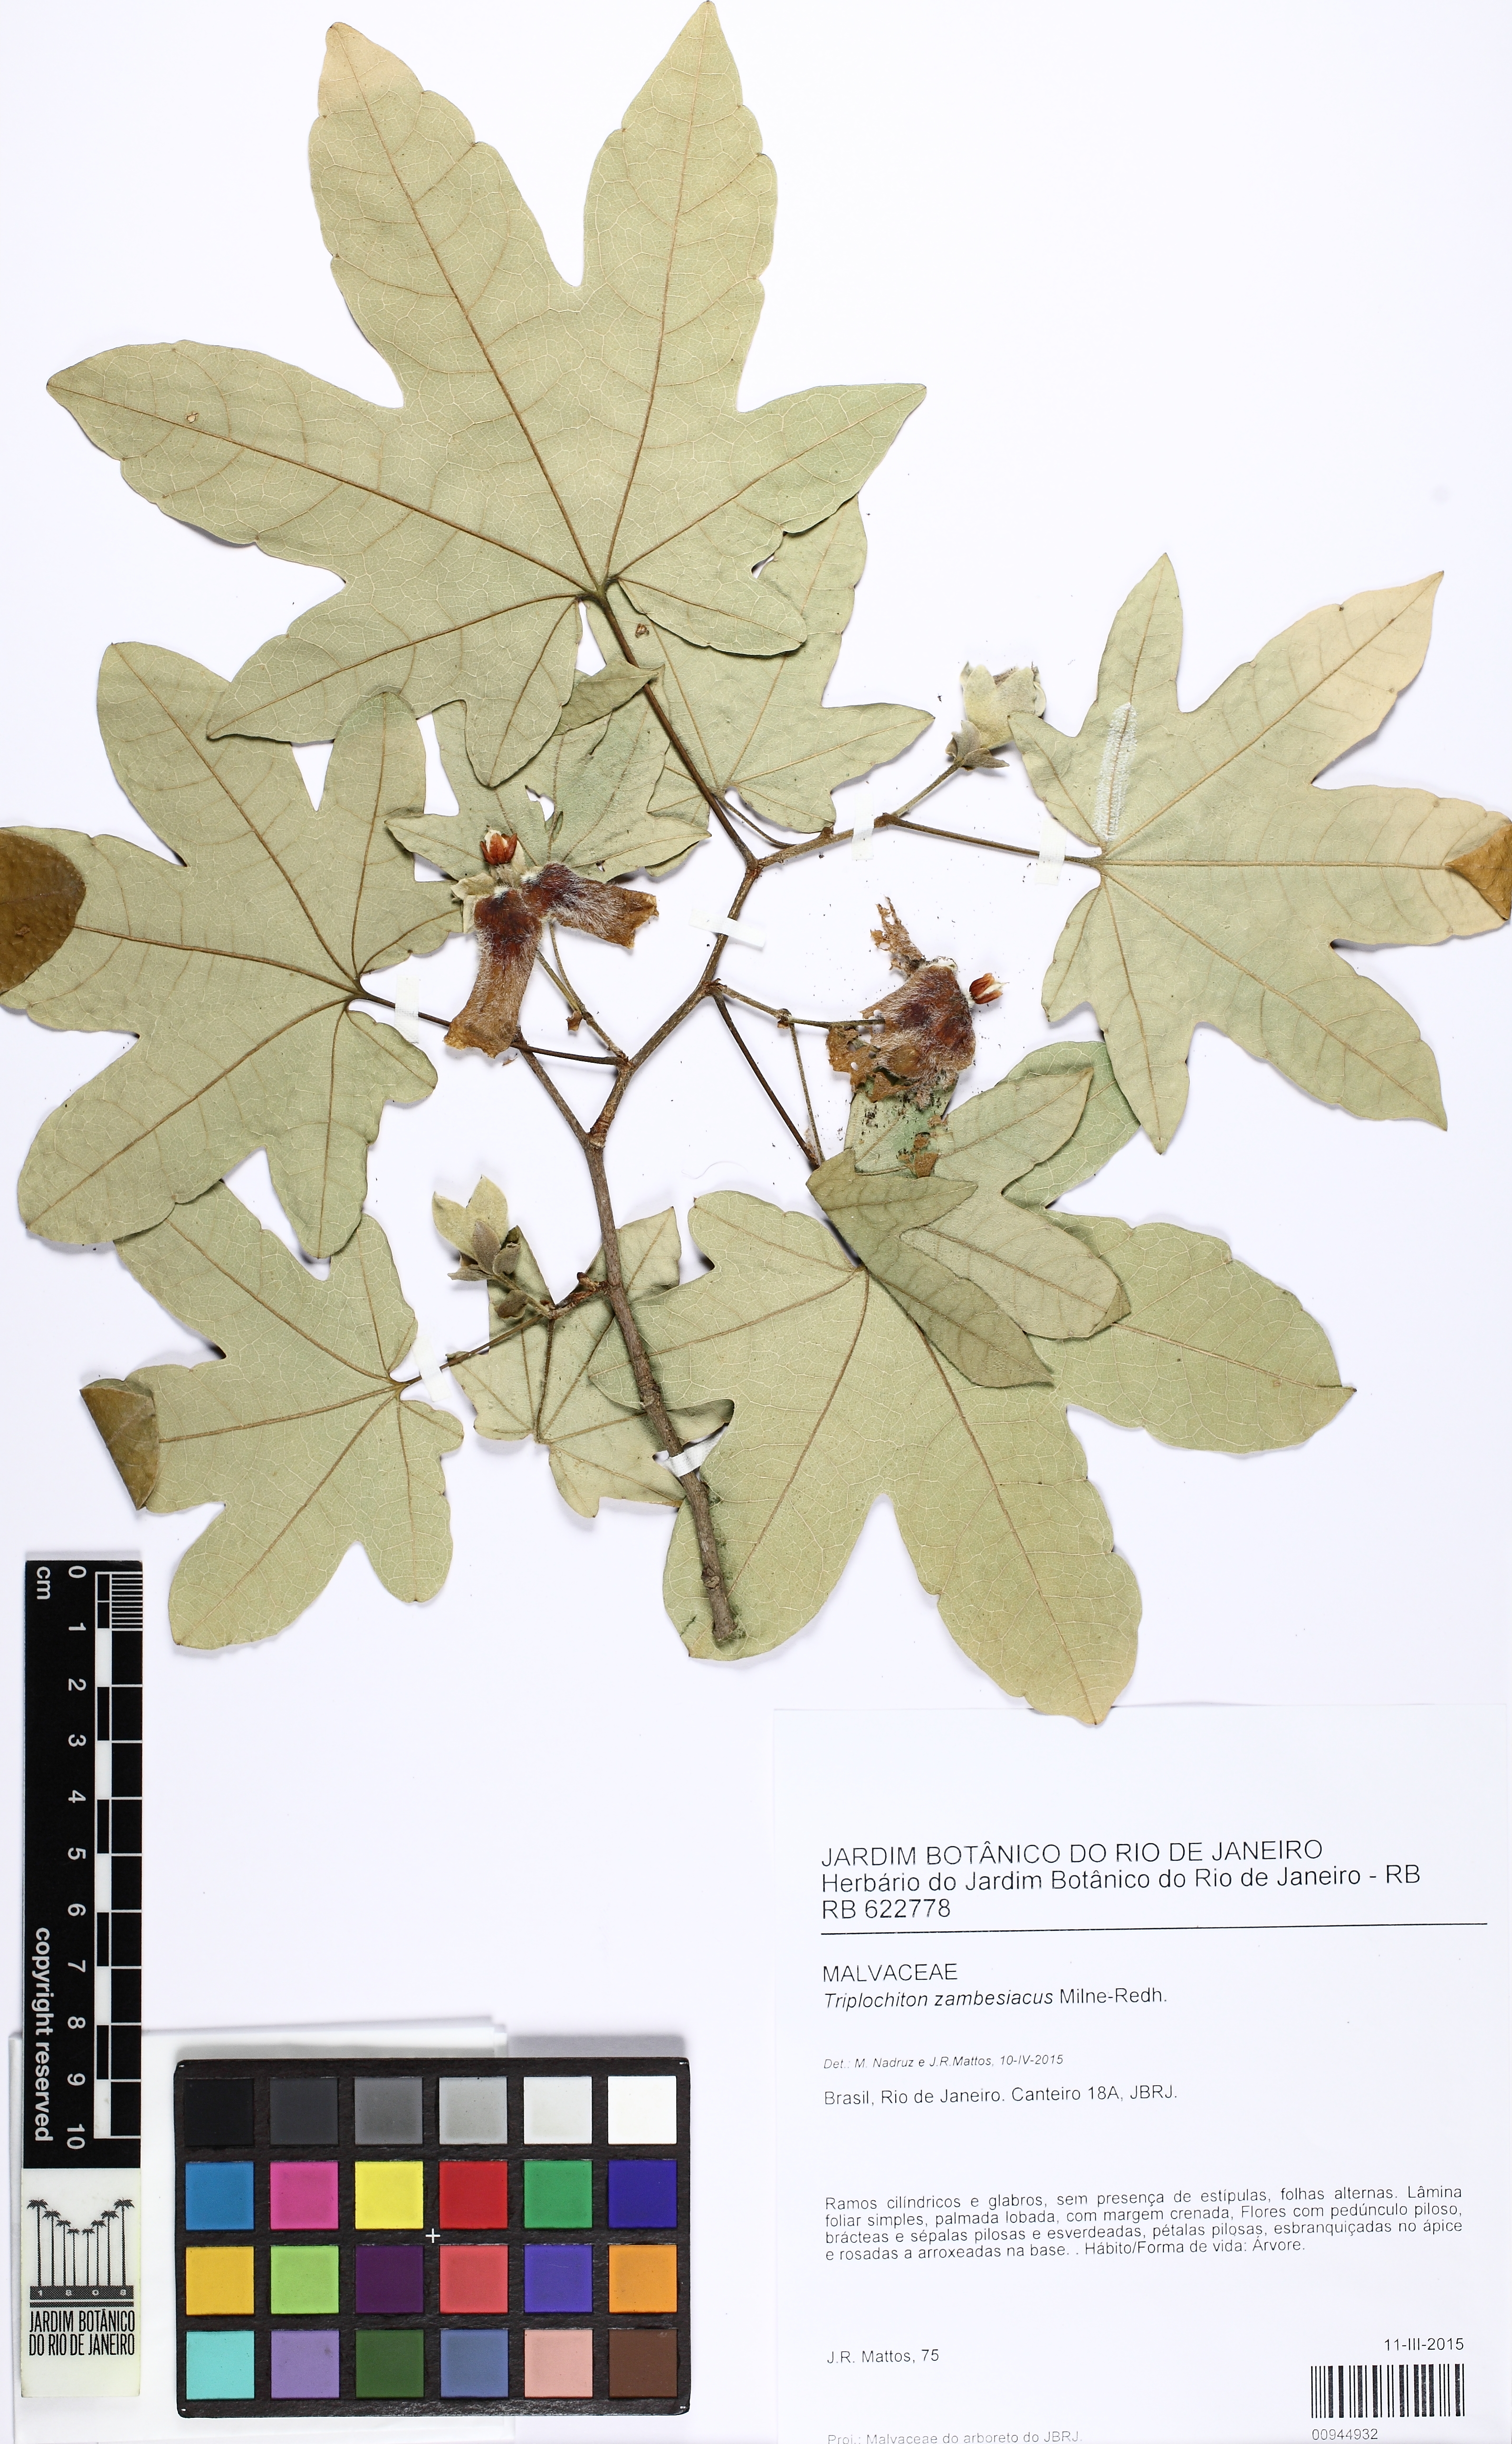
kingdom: Plantae
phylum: Tracheophyta
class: Magnoliopsida
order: Malvales
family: Malvaceae
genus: Triplochiton
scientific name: Triplochiton zambesiacus
